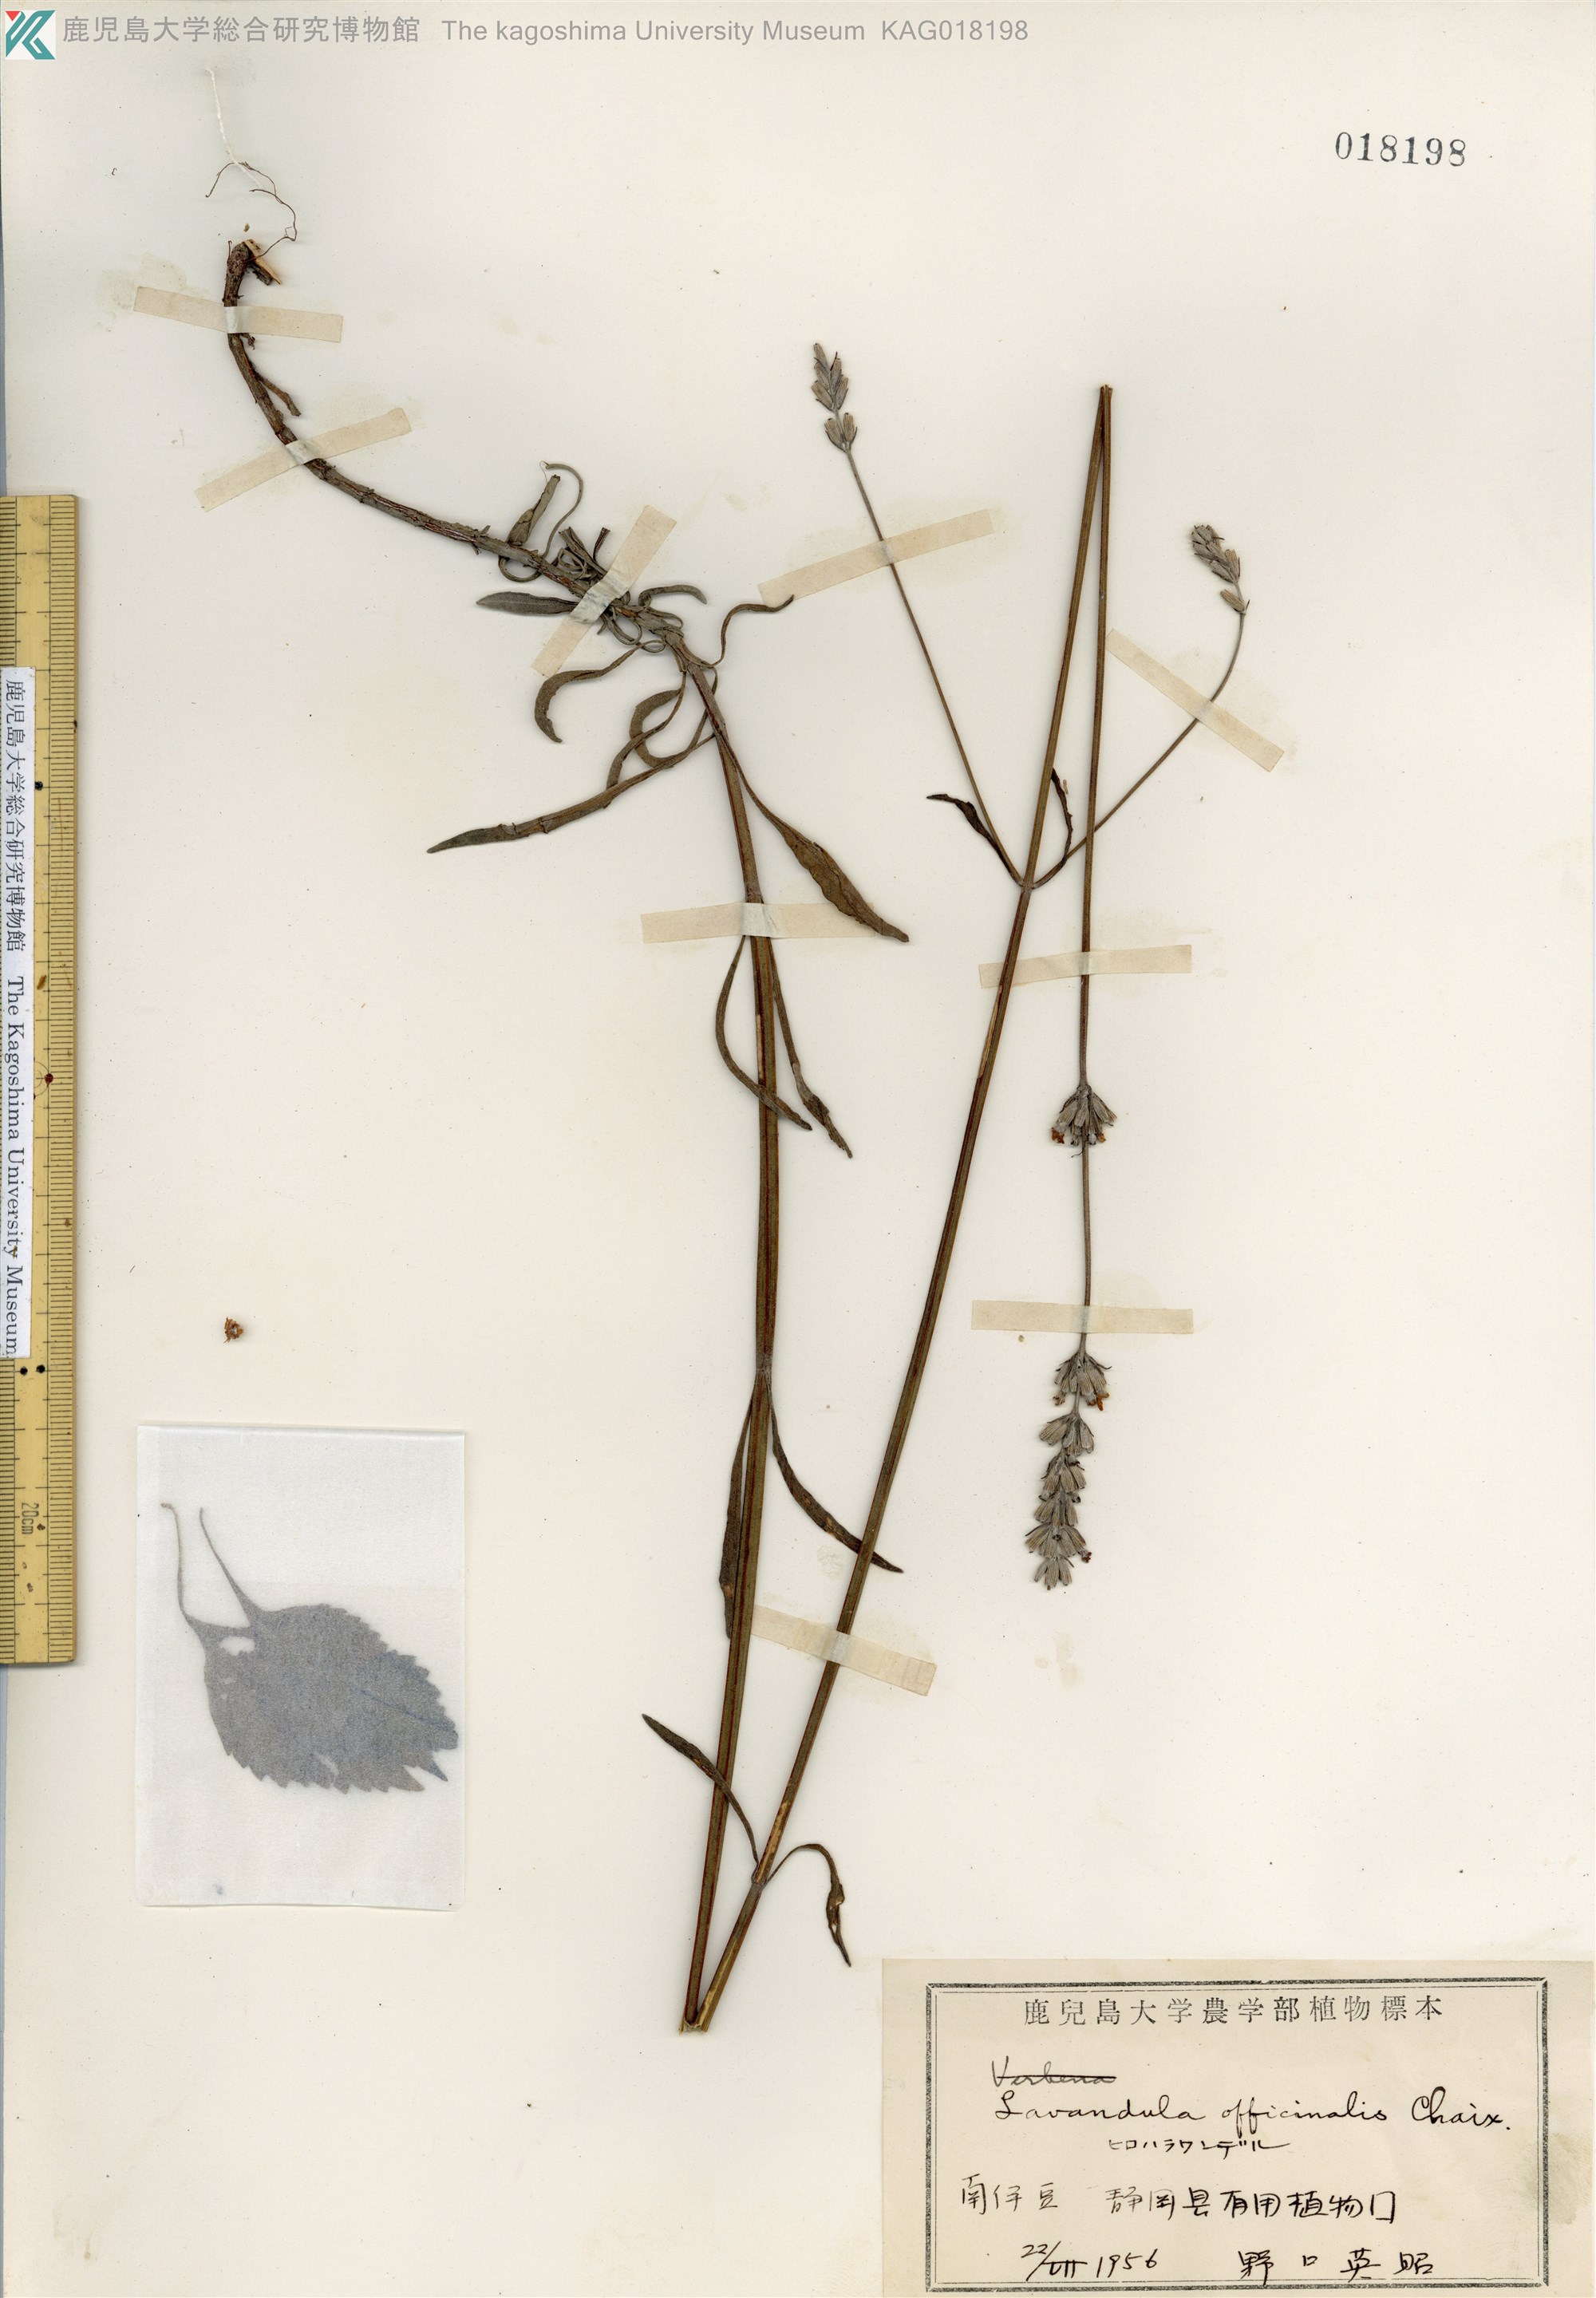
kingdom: Plantae
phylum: Tracheophyta
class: Magnoliopsida
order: Lamiales
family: Lamiaceae
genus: Lavandula
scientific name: Lavandula angustifolia
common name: Garden lavender
